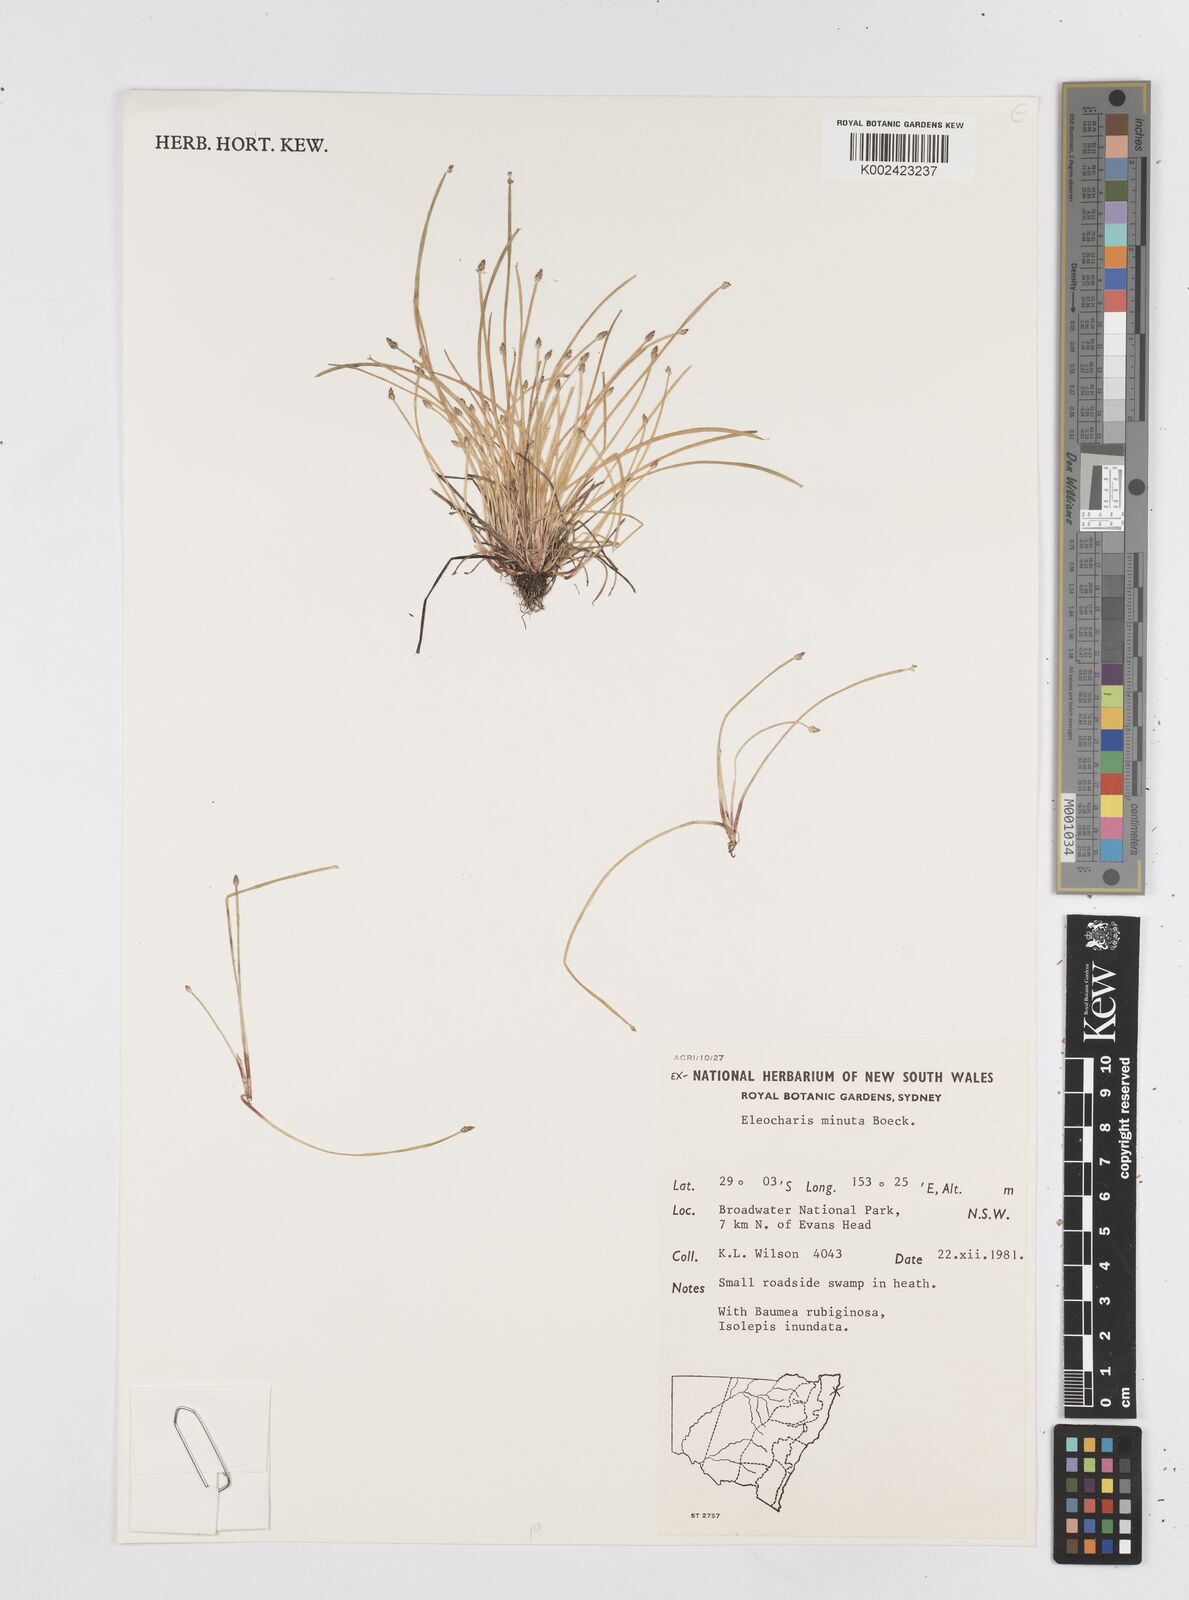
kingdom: Plantae
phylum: Tracheophyta
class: Liliopsida
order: Poales
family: Cyperaceae
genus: Eleocharis
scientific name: Eleocharis minuta
